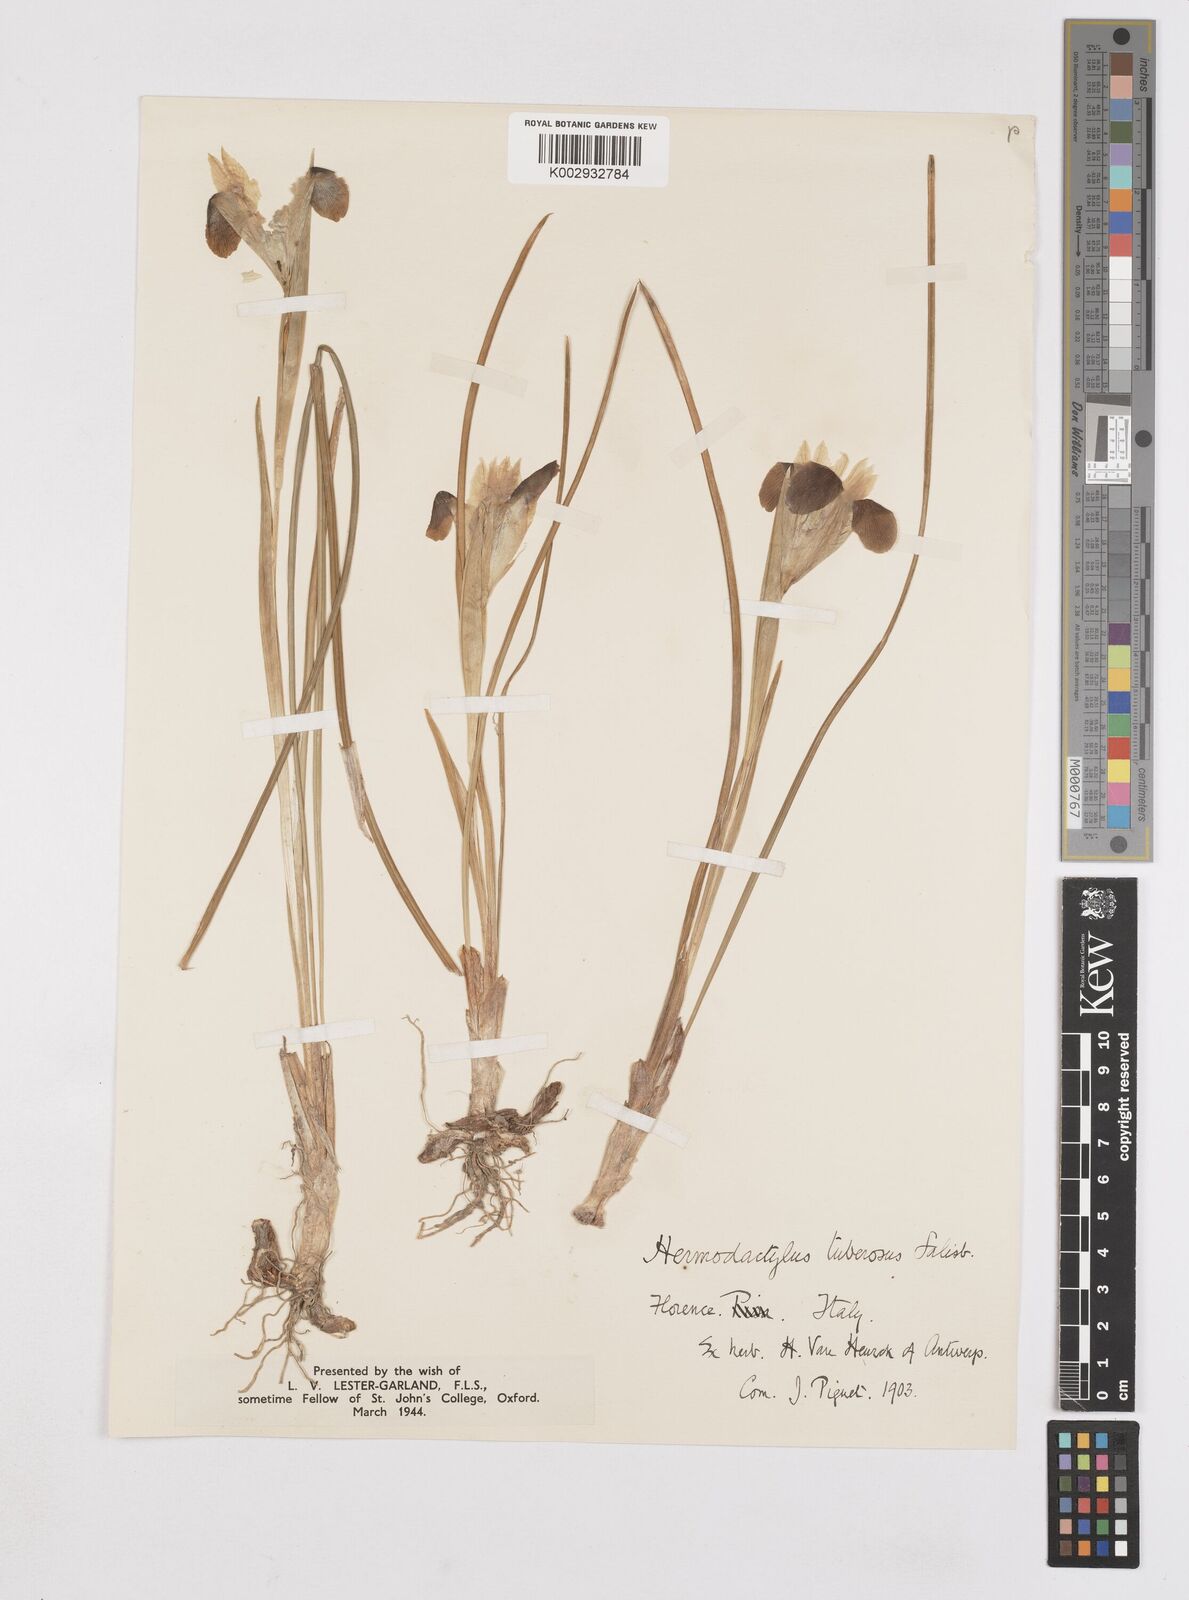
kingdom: Plantae
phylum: Tracheophyta
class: Liliopsida
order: Asparagales
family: Iridaceae
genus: Iris
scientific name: Iris tuberosa
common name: Snake's-head iris
